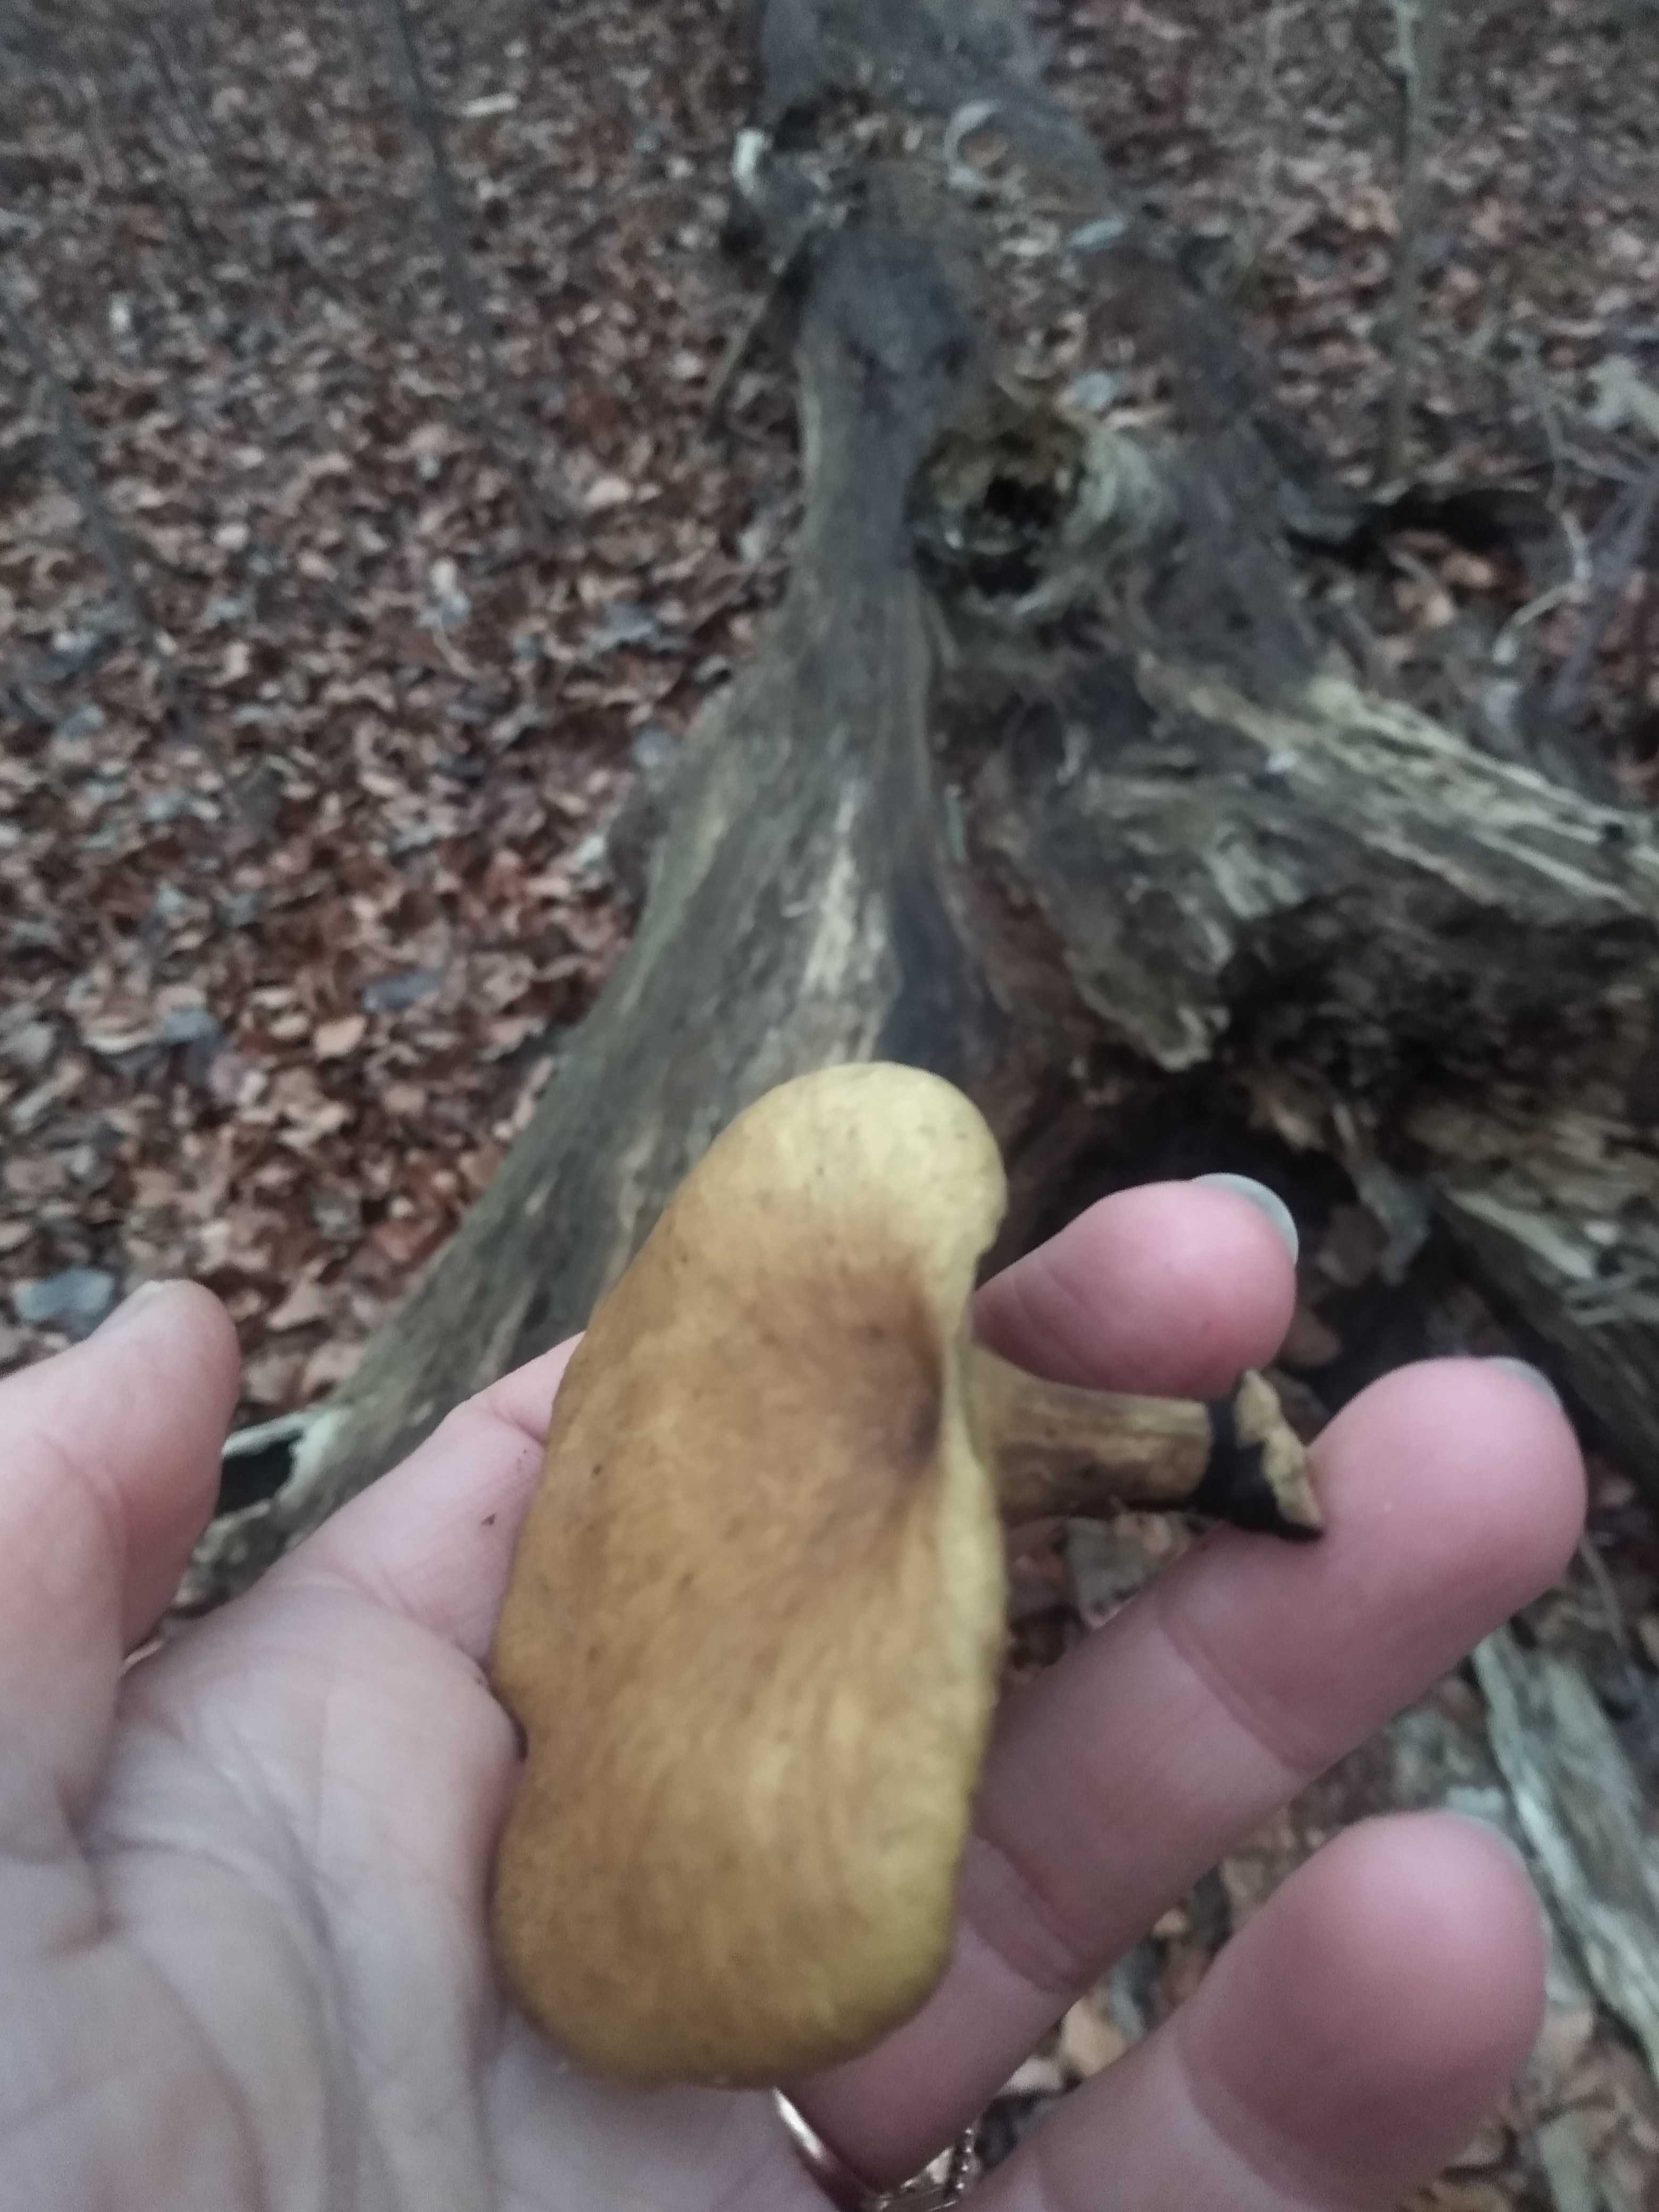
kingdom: Fungi
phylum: Basidiomycota
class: Agaricomycetes
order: Polyporales
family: Polyporaceae
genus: Cerioporus
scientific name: Cerioporus varius
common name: foranderlig stilkporesvamp
